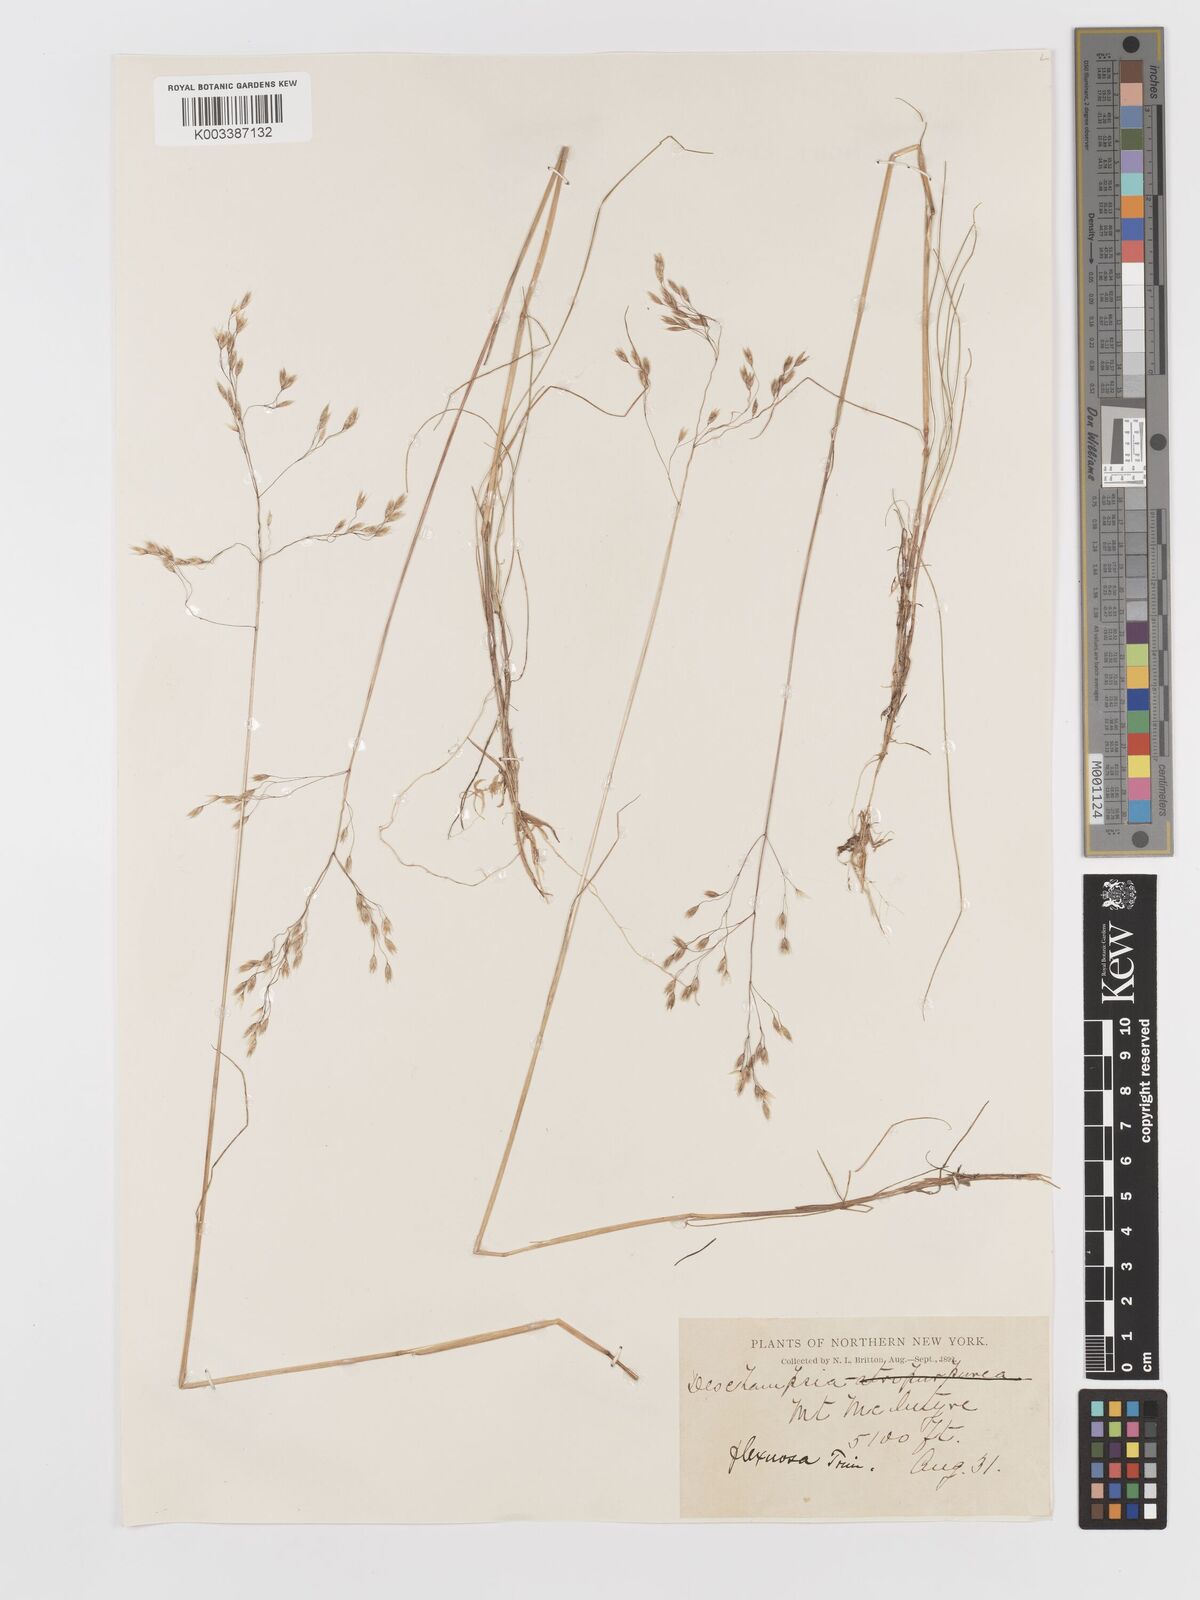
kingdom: Plantae
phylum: Tracheophyta
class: Liliopsida
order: Poales
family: Poaceae
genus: Avenella
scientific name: Avenella flexuosa
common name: Wavy hairgrass
